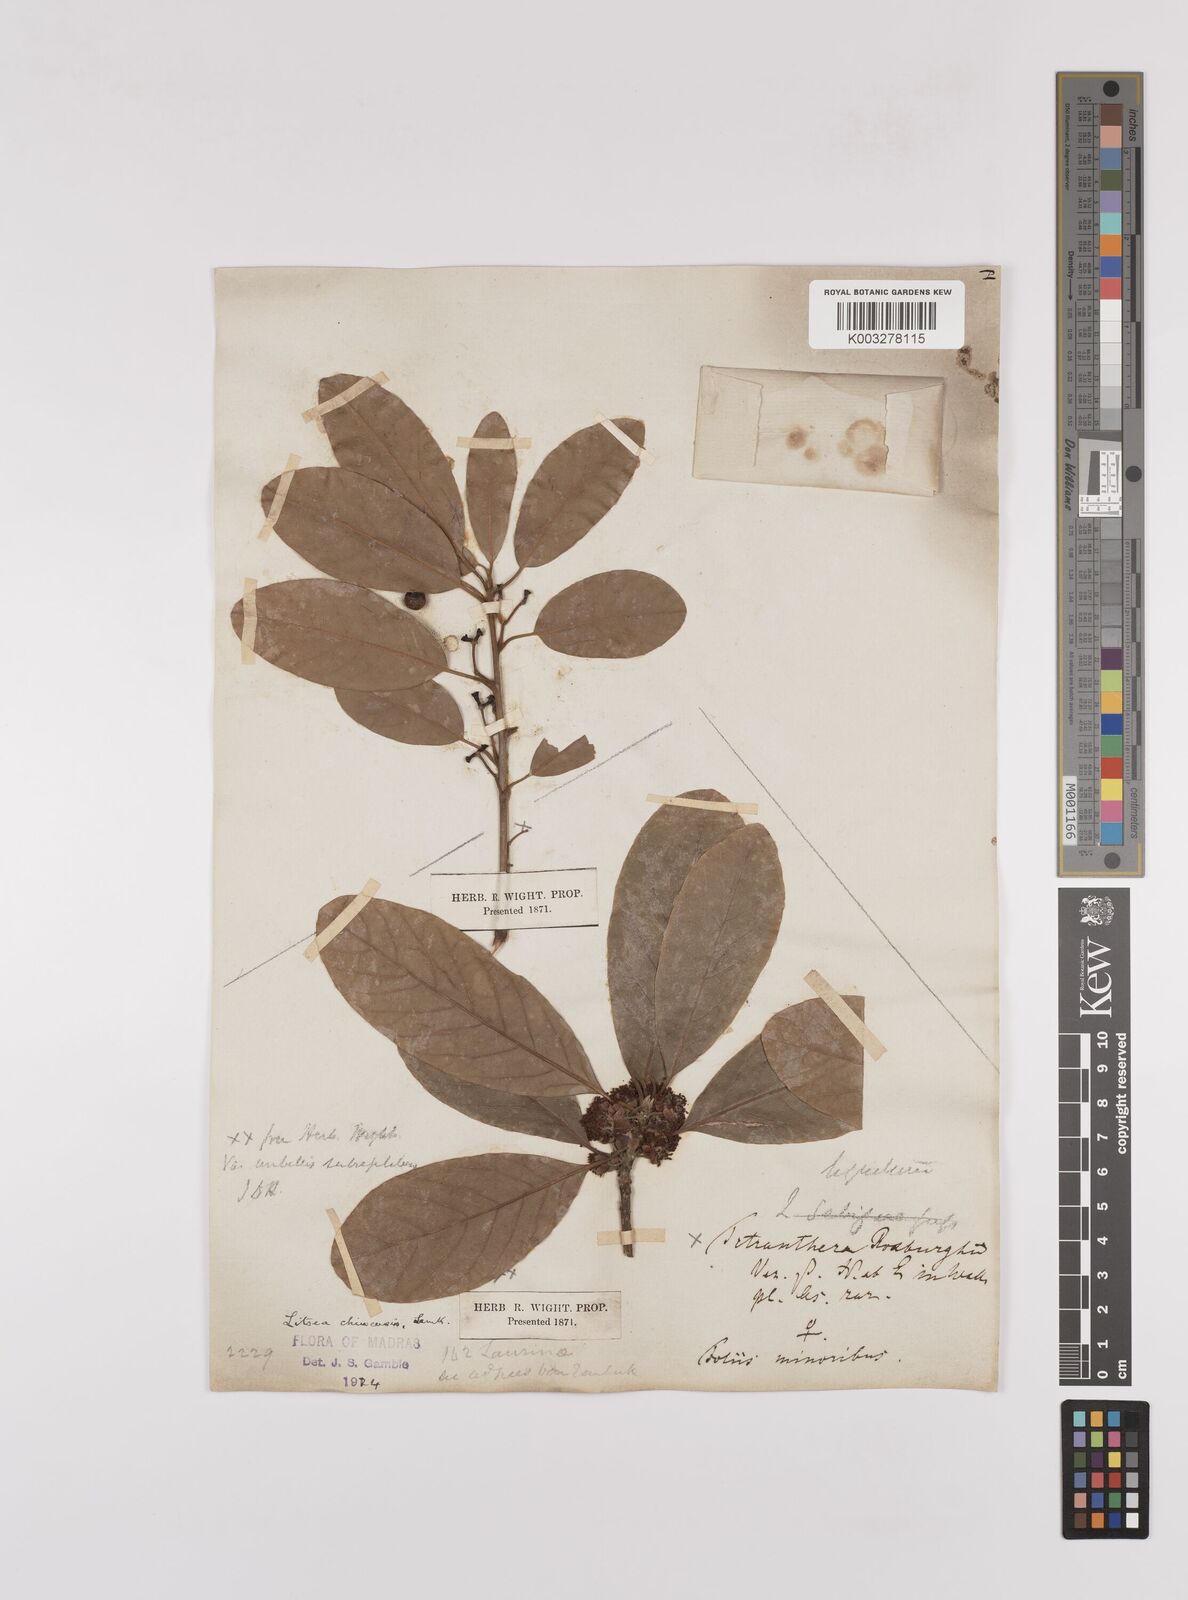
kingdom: Plantae
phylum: Tracheophyta
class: Magnoliopsida
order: Laurales
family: Lauraceae
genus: Litsea
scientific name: Litsea
